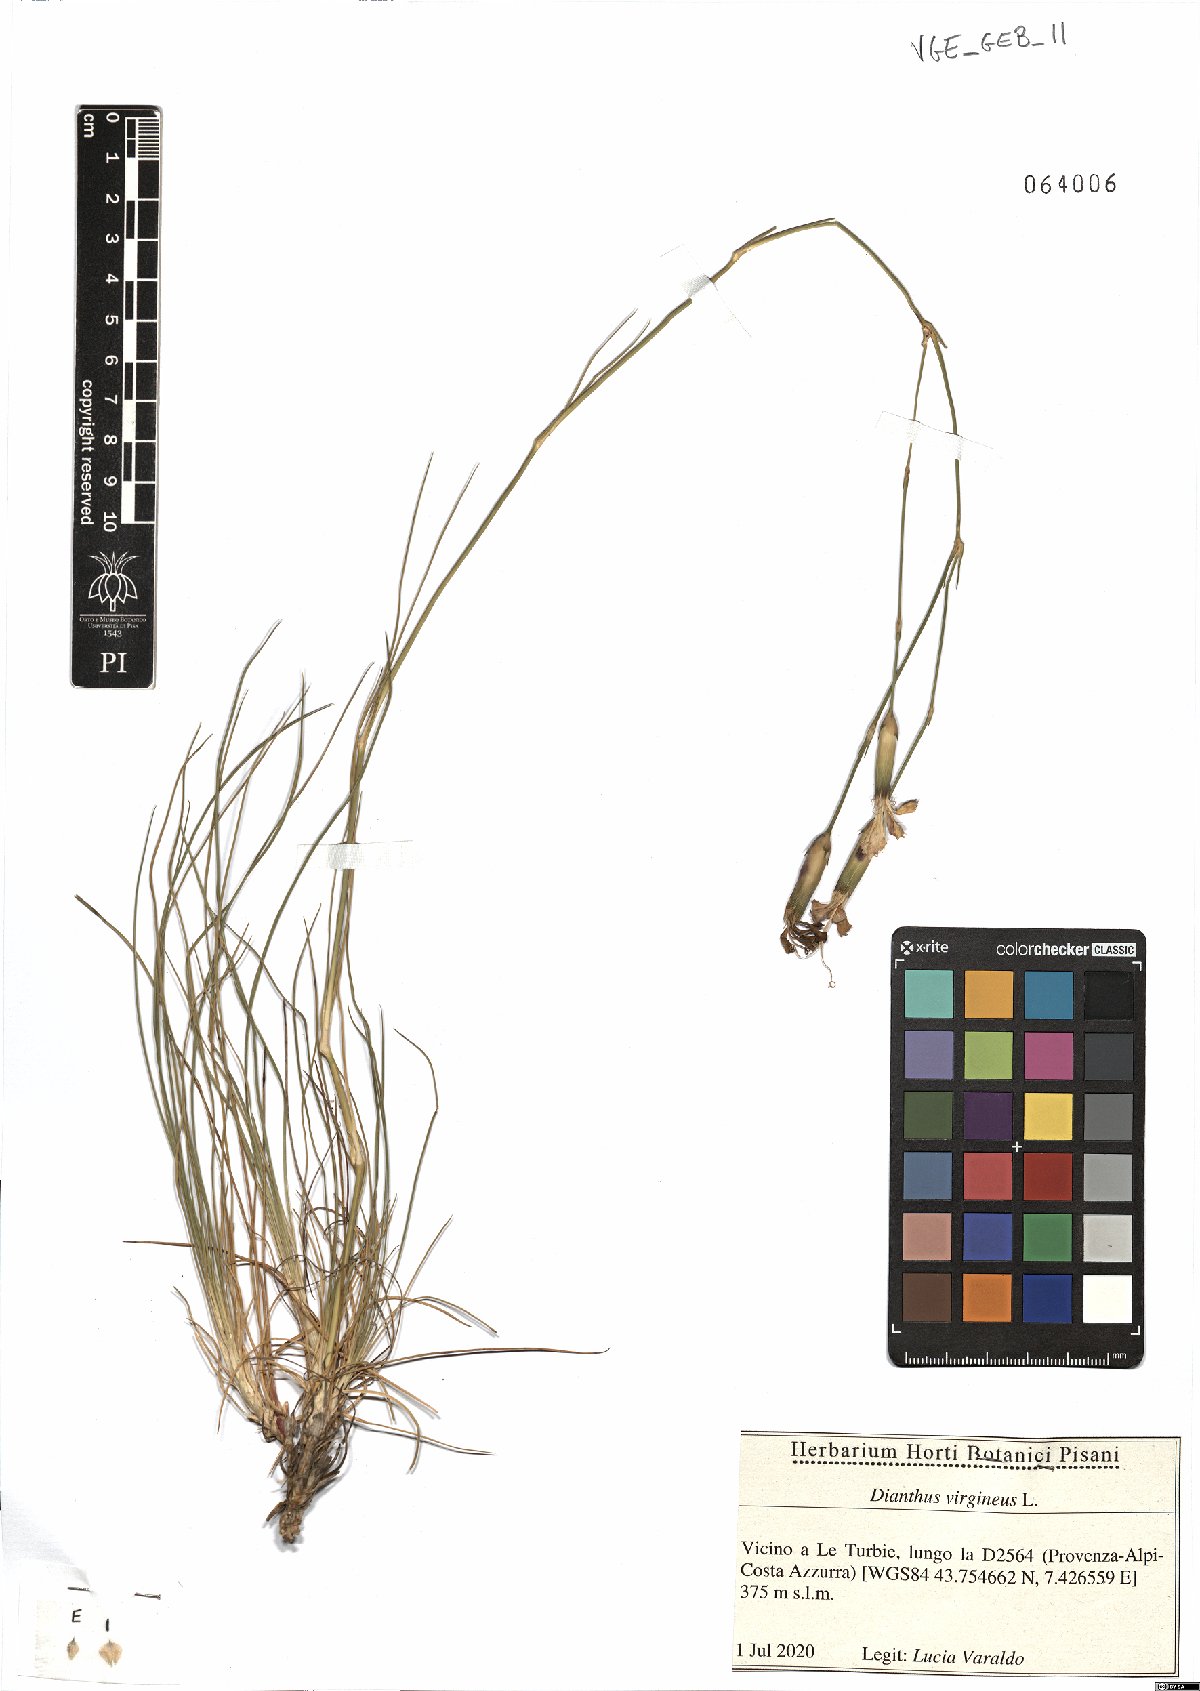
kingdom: Plantae
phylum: Tracheophyta
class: Magnoliopsida
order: Caryophyllales
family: Caryophyllaceae
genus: Dianthus
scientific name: Dianthus virgineus
